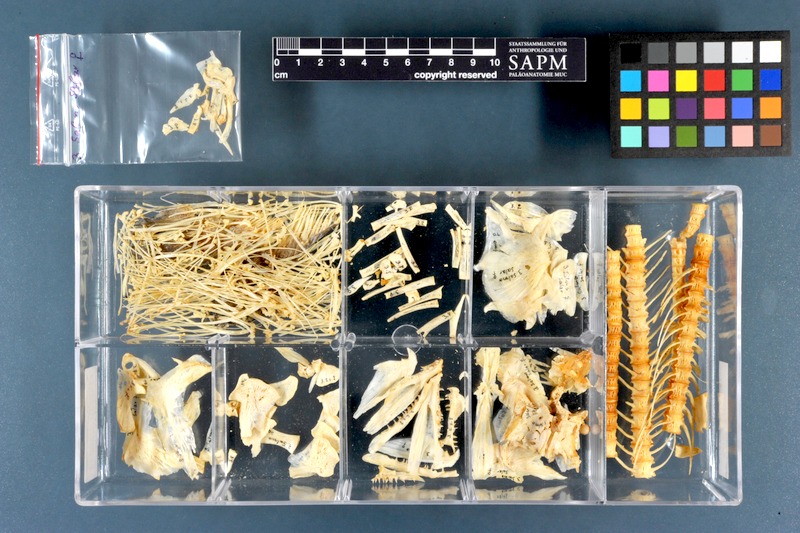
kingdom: Animalia
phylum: Chordata
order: Salmoniformes
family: Salmonidae
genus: Salmo
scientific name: Salmo salar
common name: Atlantic salmon
